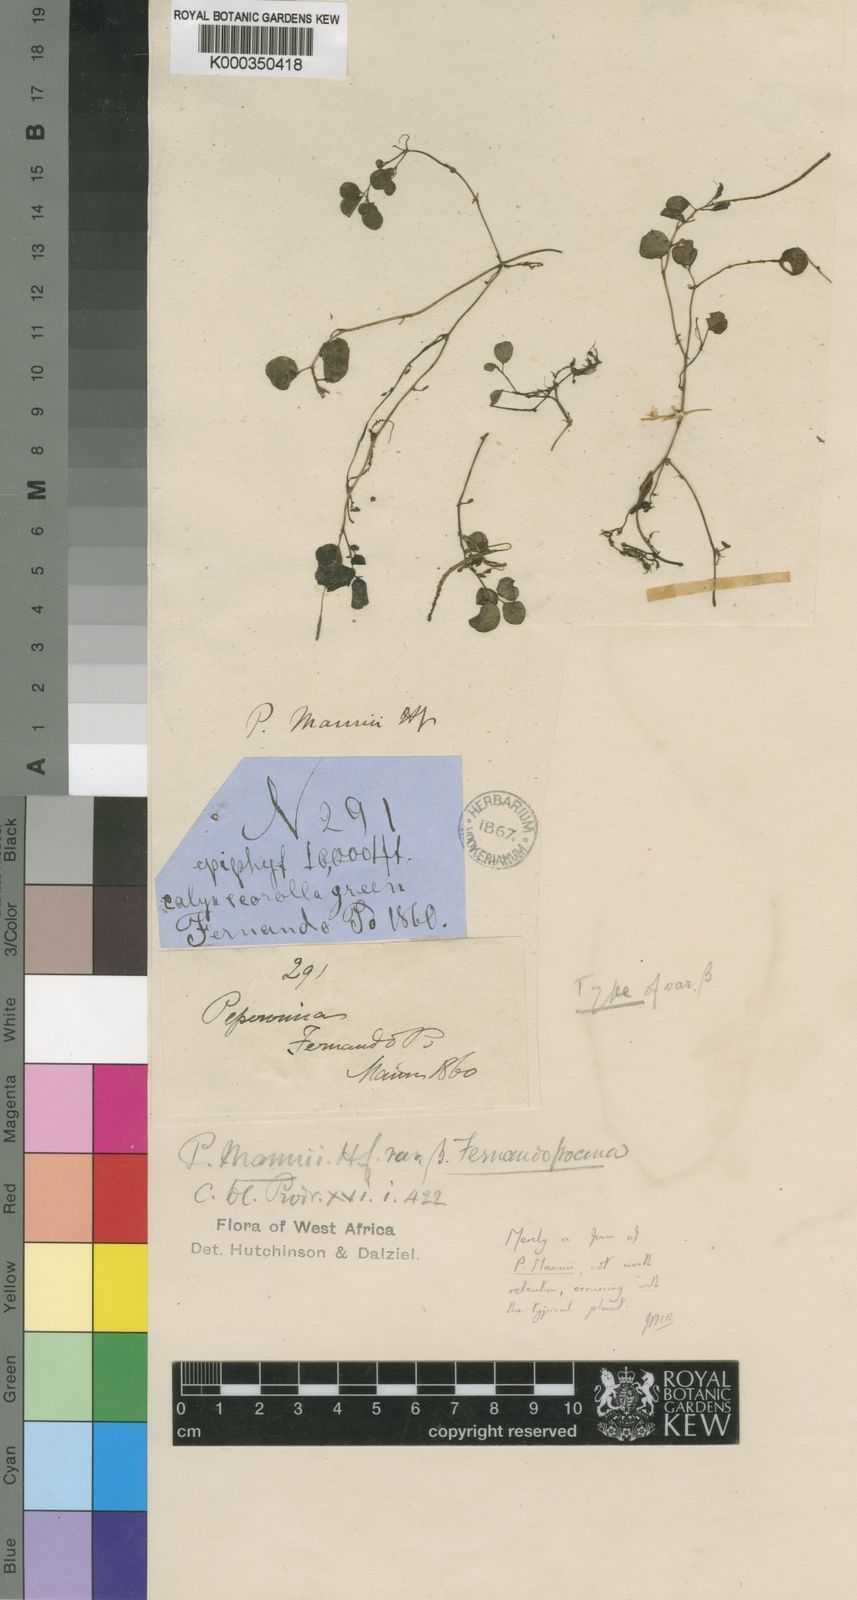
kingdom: Plantae
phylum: Tracheophyta
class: Magnoliopsida
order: Piperales
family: Piperaceae
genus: Peperomia
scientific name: Peperomia retusa
